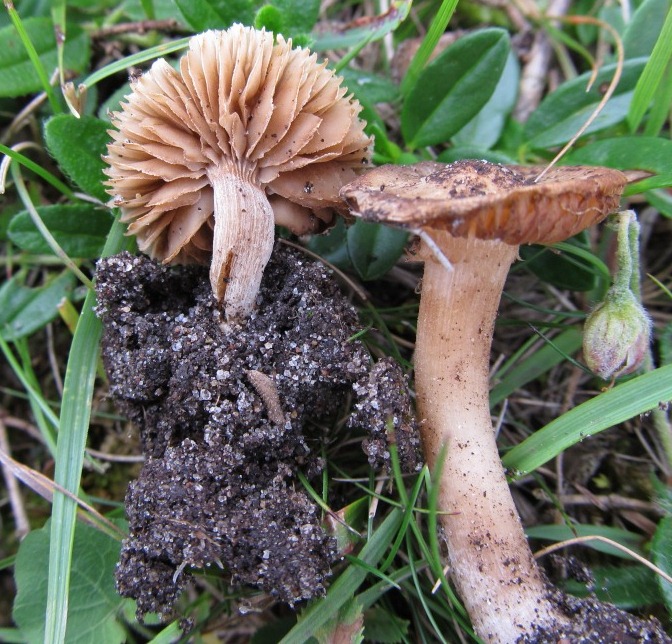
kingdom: Fungi
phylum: Basidiomycota
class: Agaricomycetes
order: Agaricales
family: Inocybaceae
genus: Inocybe
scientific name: Inocybe albomarginata
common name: lysrandet trævlhat
